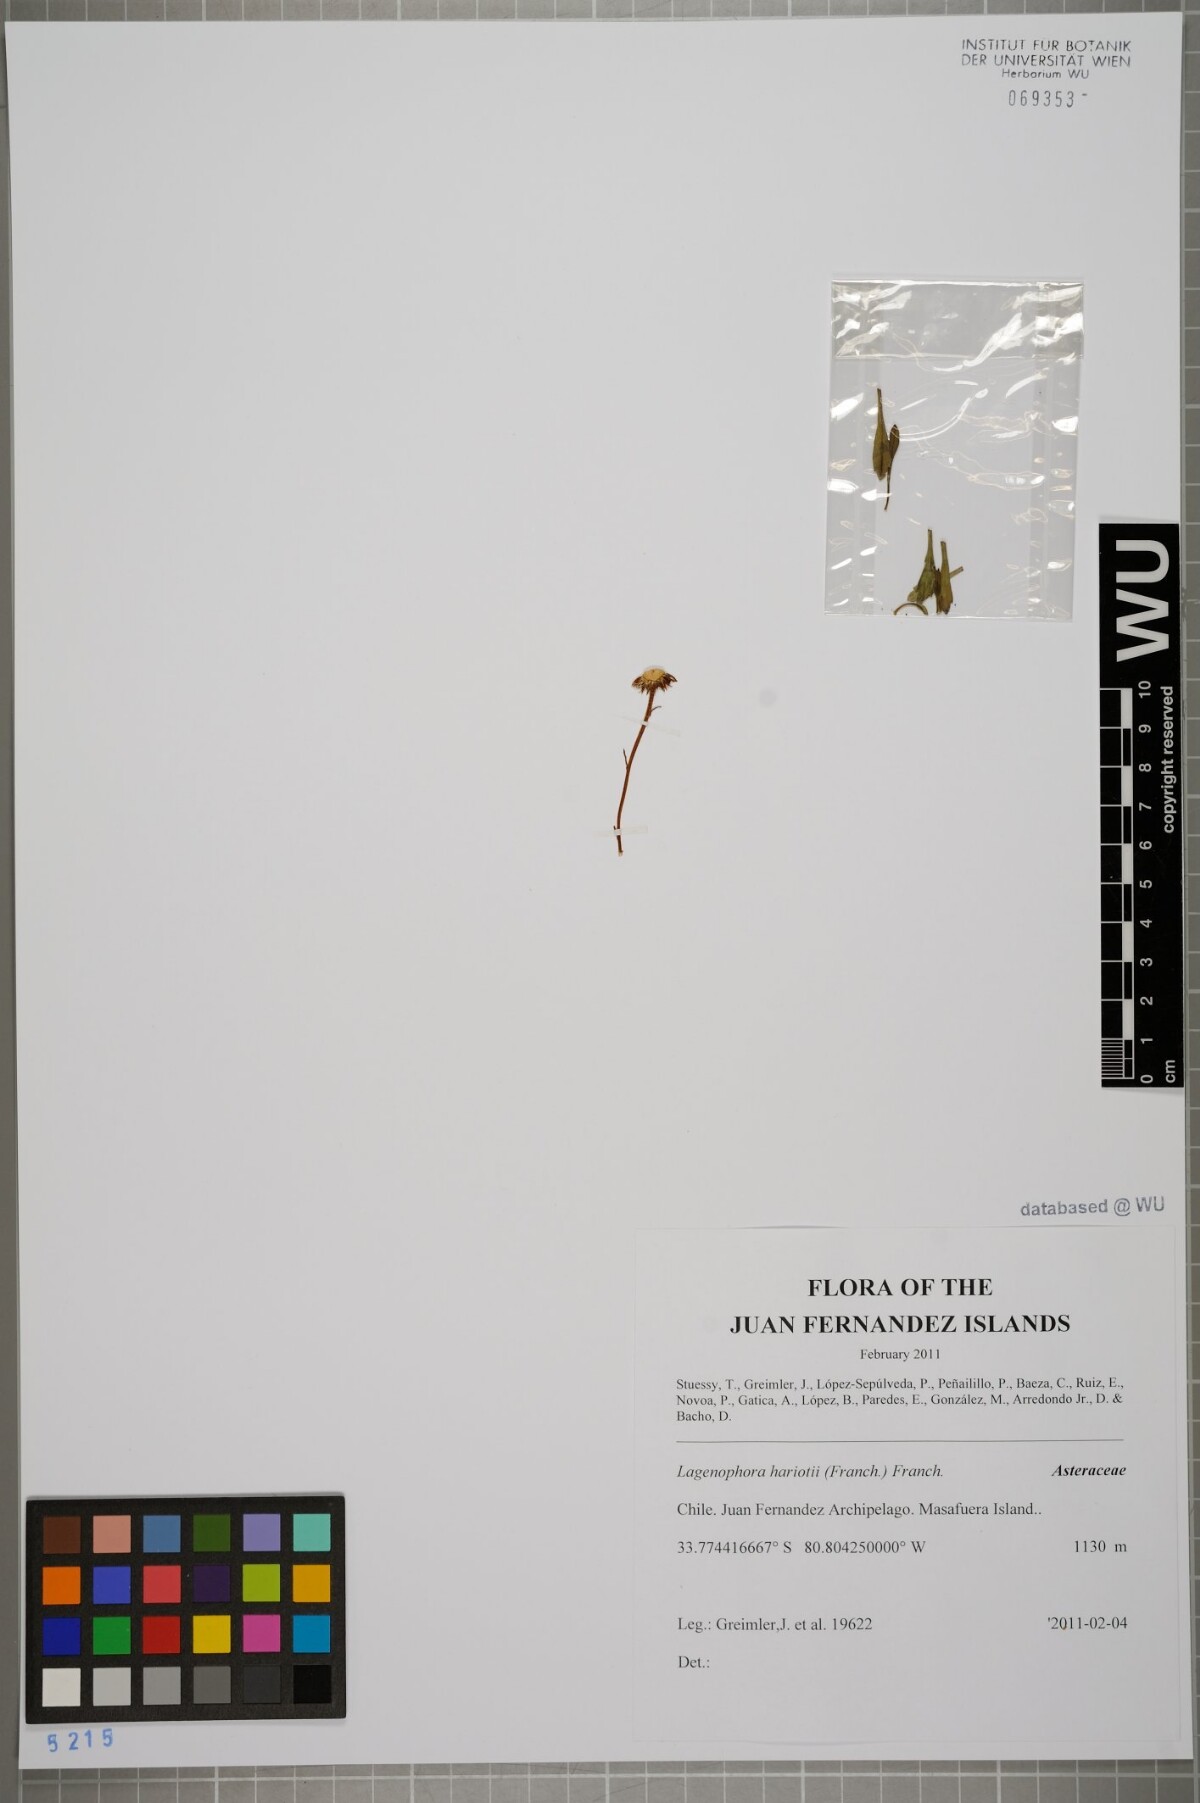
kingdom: Plantae
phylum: Tracheophyta
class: Magnoliopsida
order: Asterales
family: Asteraceae
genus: Lagenophora
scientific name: Lagenophora hariotii
